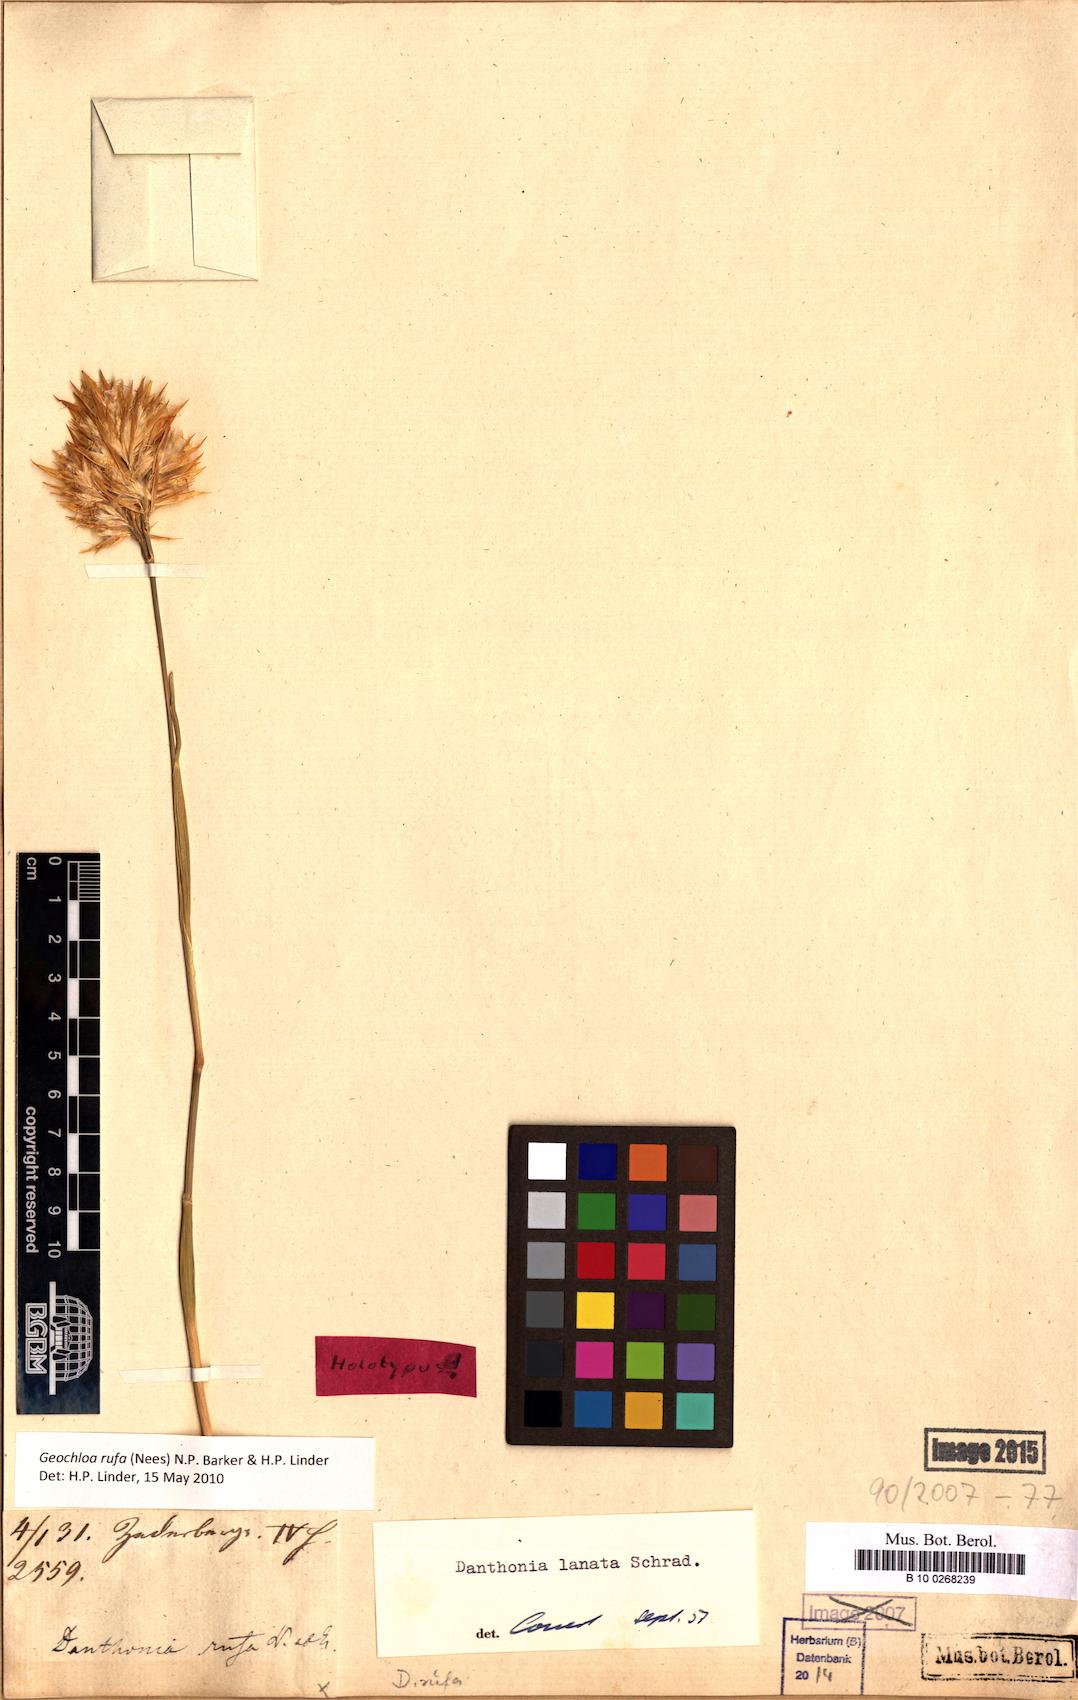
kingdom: Plantae
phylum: Tracheophyta
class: Liliopsida
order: Poales
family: Poaceae
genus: Geochloa
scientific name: Geochloa rufa
